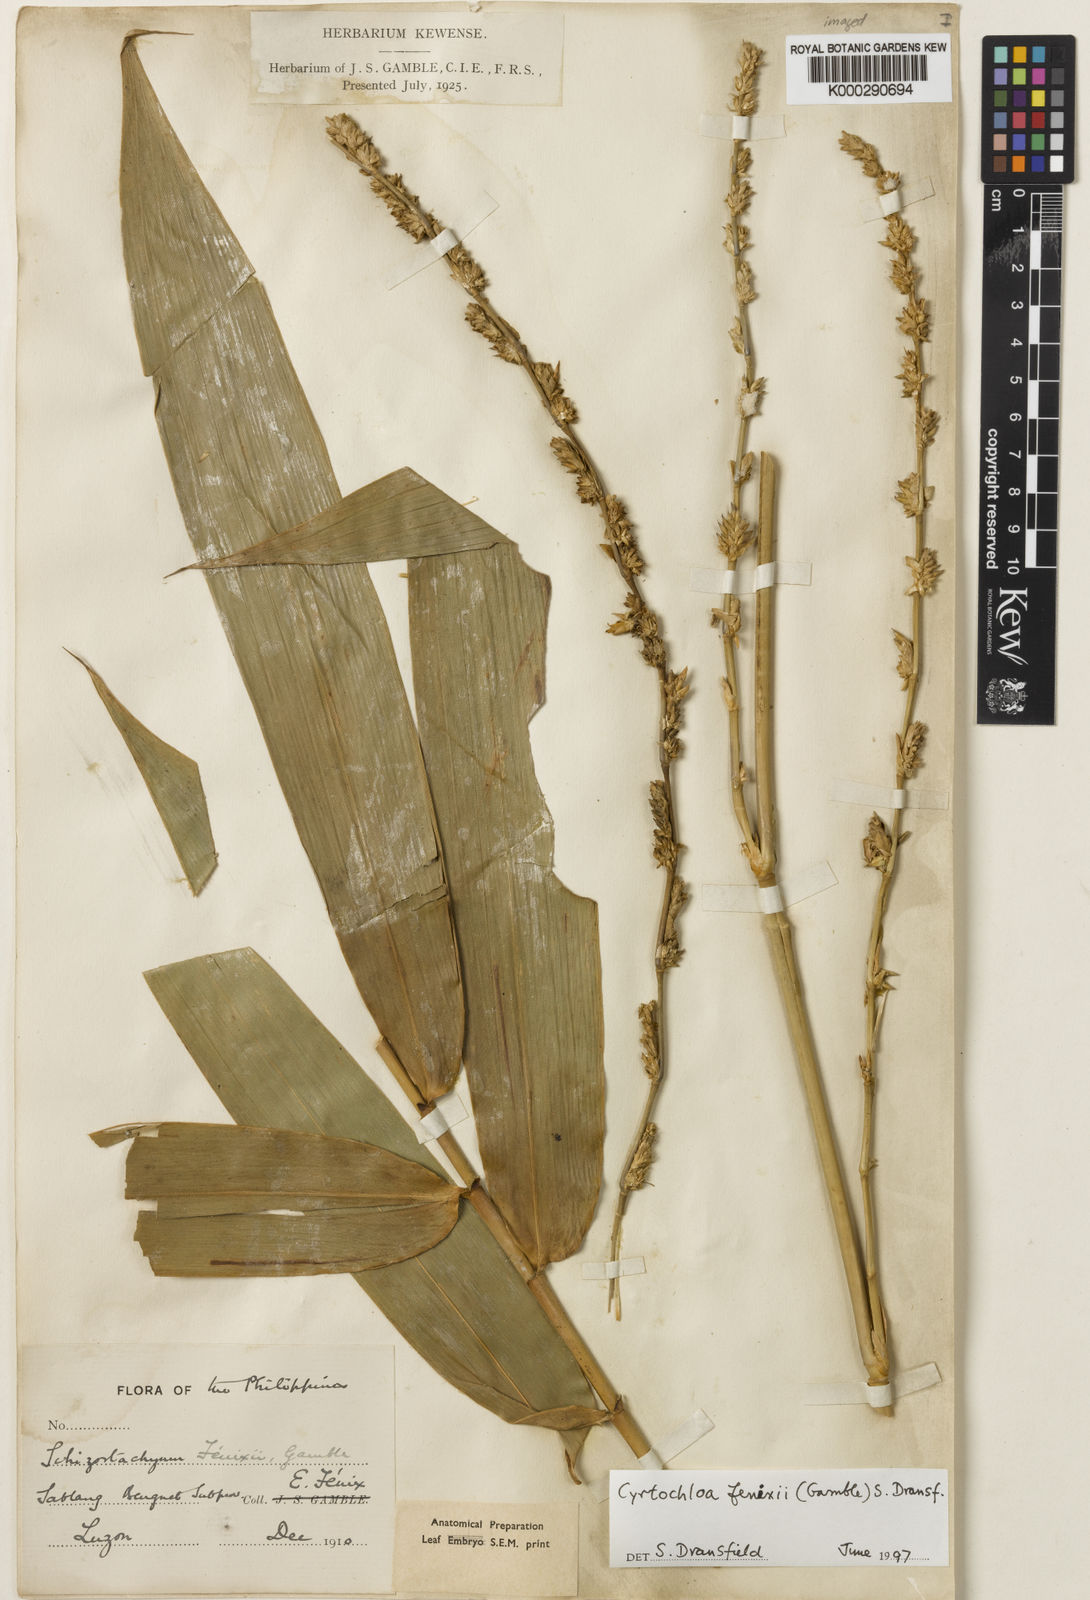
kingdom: Plantae
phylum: Tracheophyta
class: Liliopsida
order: Poales
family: Poaceae
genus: Cyrtochloa
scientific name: Cyrtochloa fenixii
